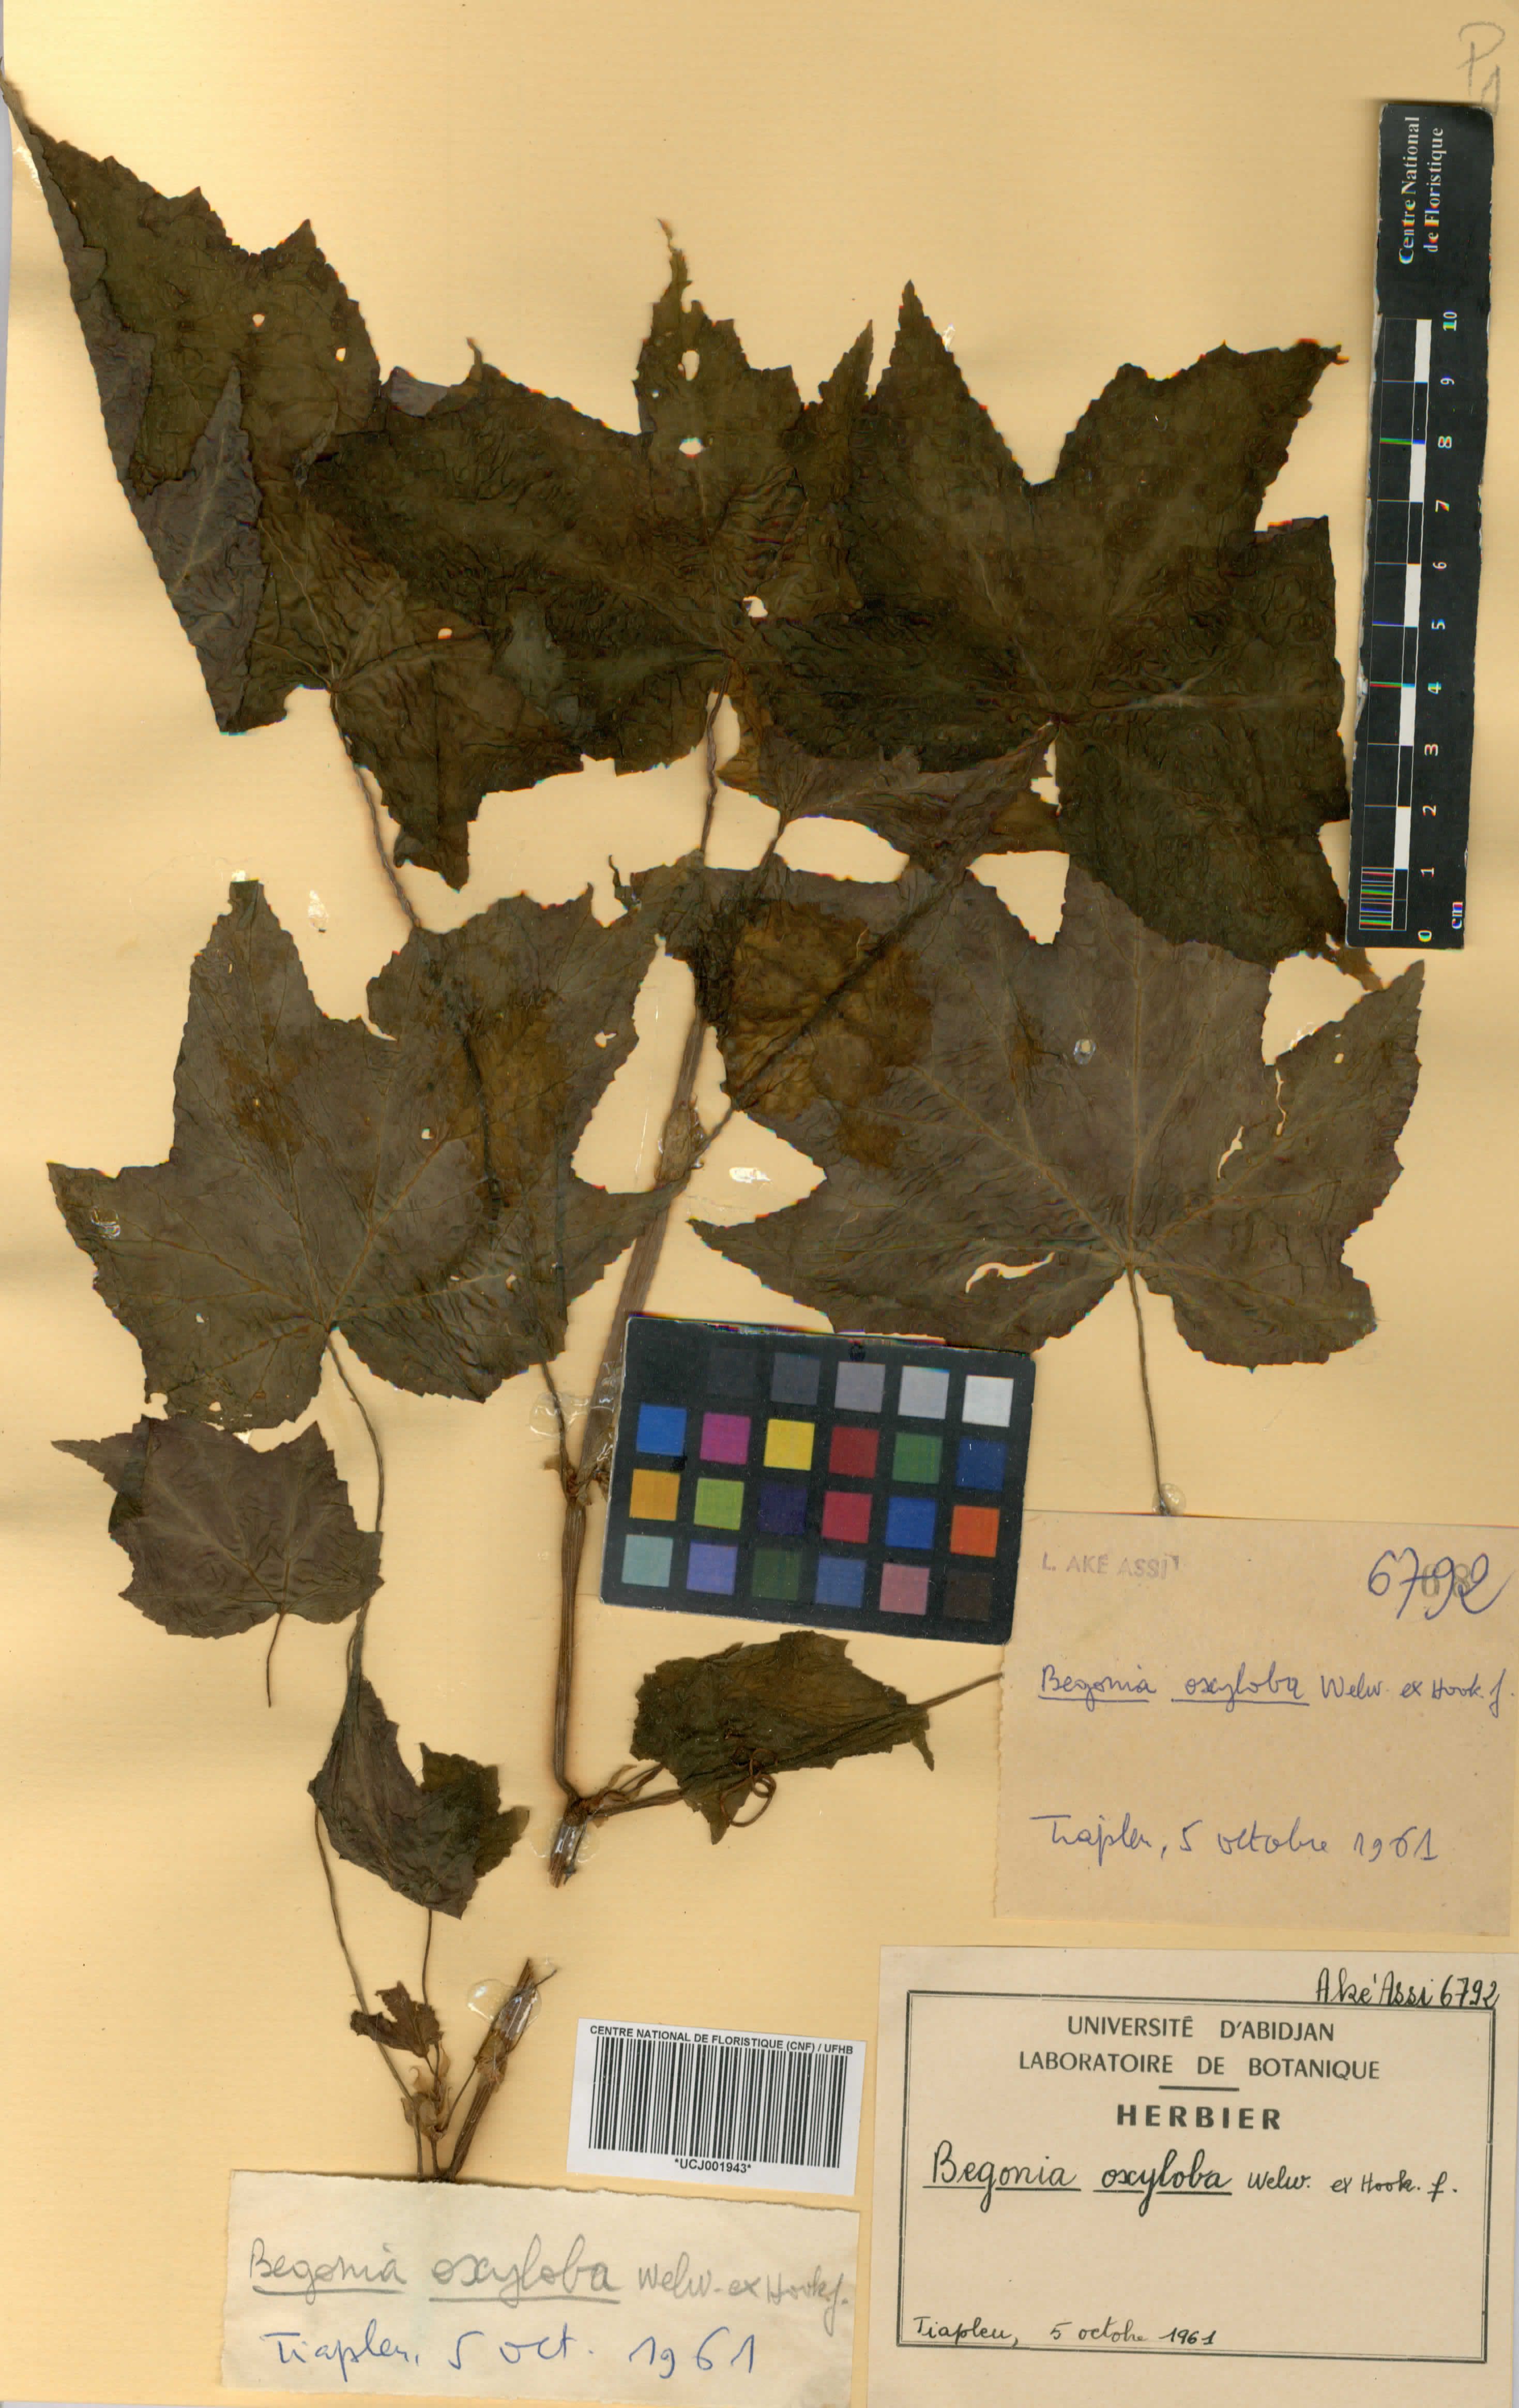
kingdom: Plantae
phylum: Tracheophyta
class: Magnoliopsida
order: Cucurbitales
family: Begoniaceae
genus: Begonia
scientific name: Begonia oxyloba
